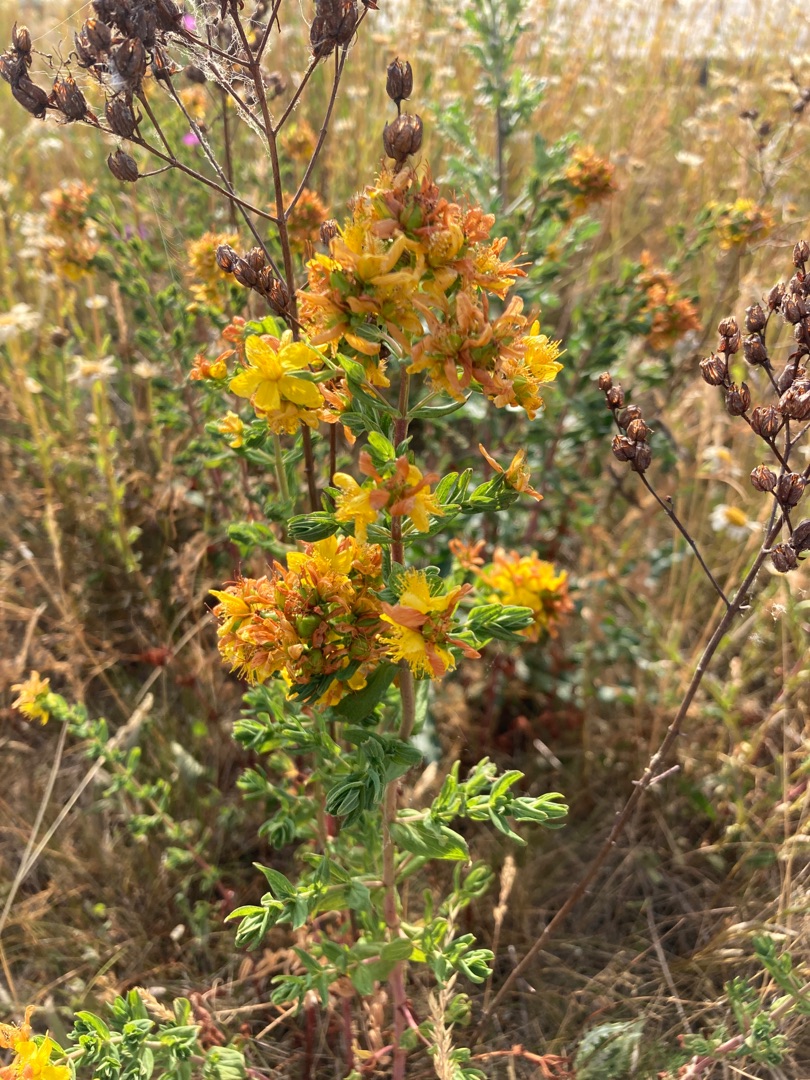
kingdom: Plantae
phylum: Tracheophyta
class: Magnoliopsida
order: Malpighiales
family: Hypericaceae
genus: Hypericum
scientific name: Hypericum perforatum
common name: Prikbladet perikon
